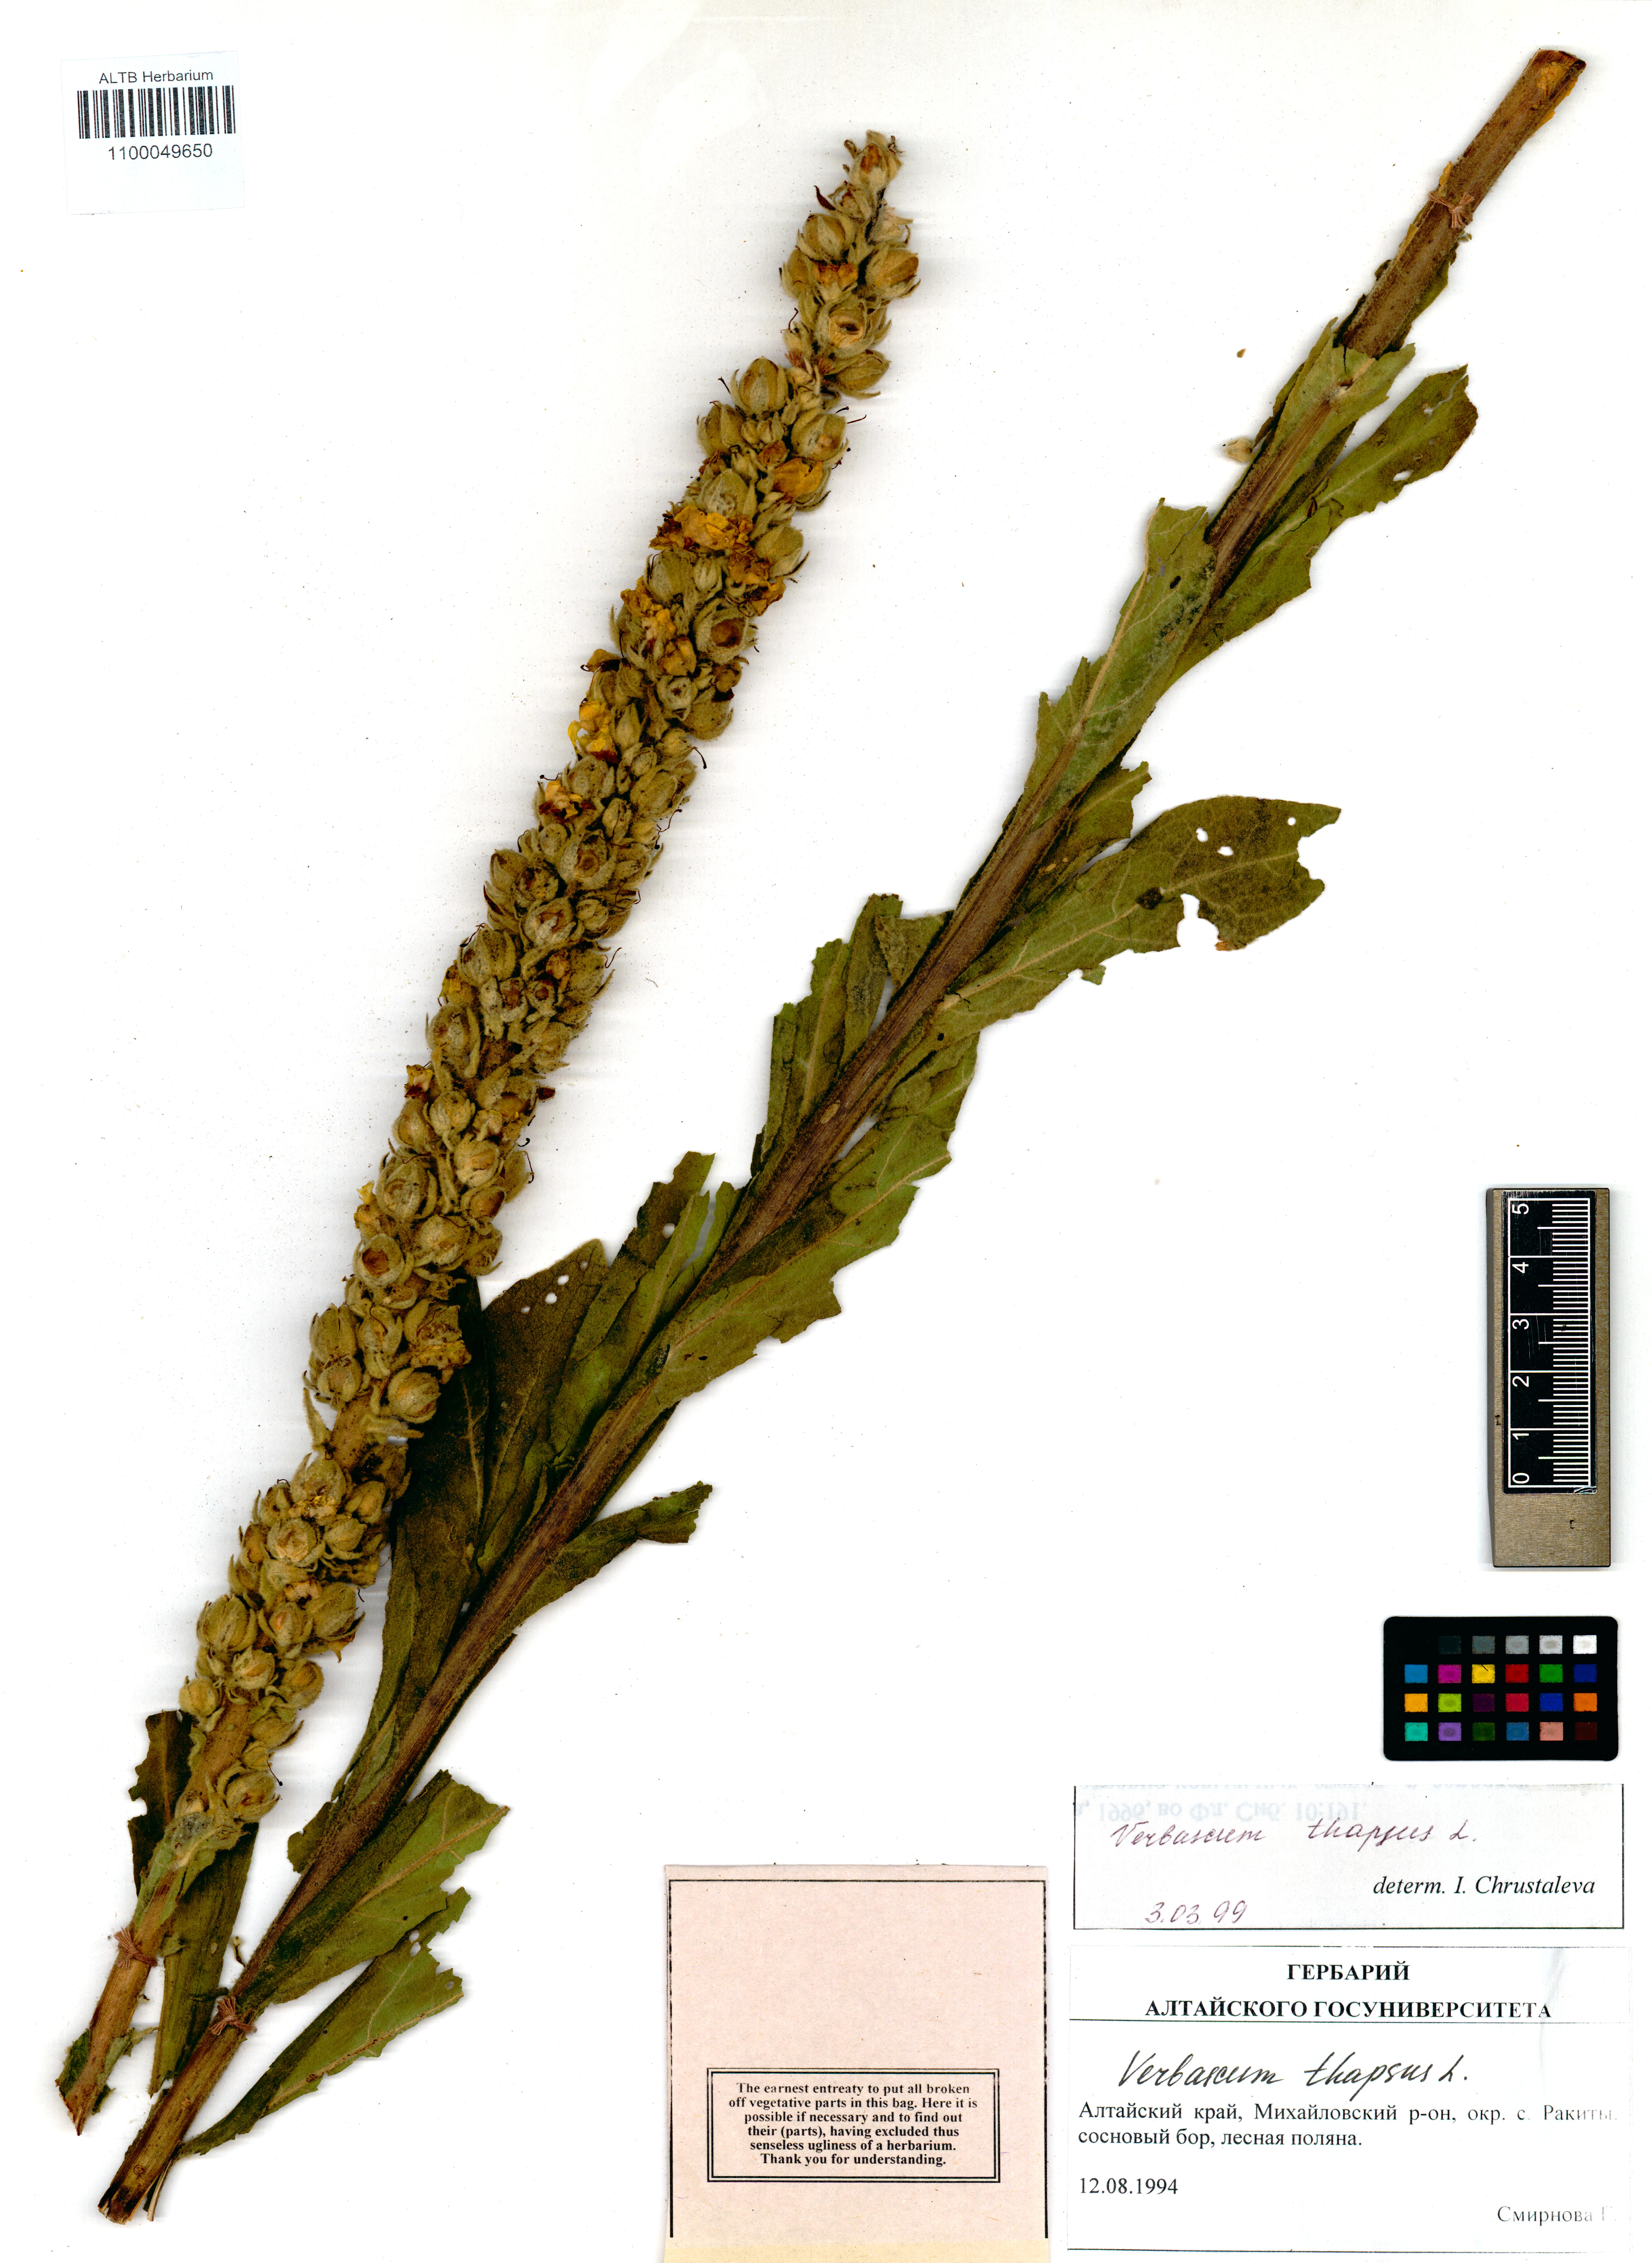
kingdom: Plantae
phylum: Tracheophyta
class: Magnoliopsida
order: Lamiales
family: Scrophulariaceae
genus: Verbascum
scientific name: Verbascum thapsus
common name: Common mullein
